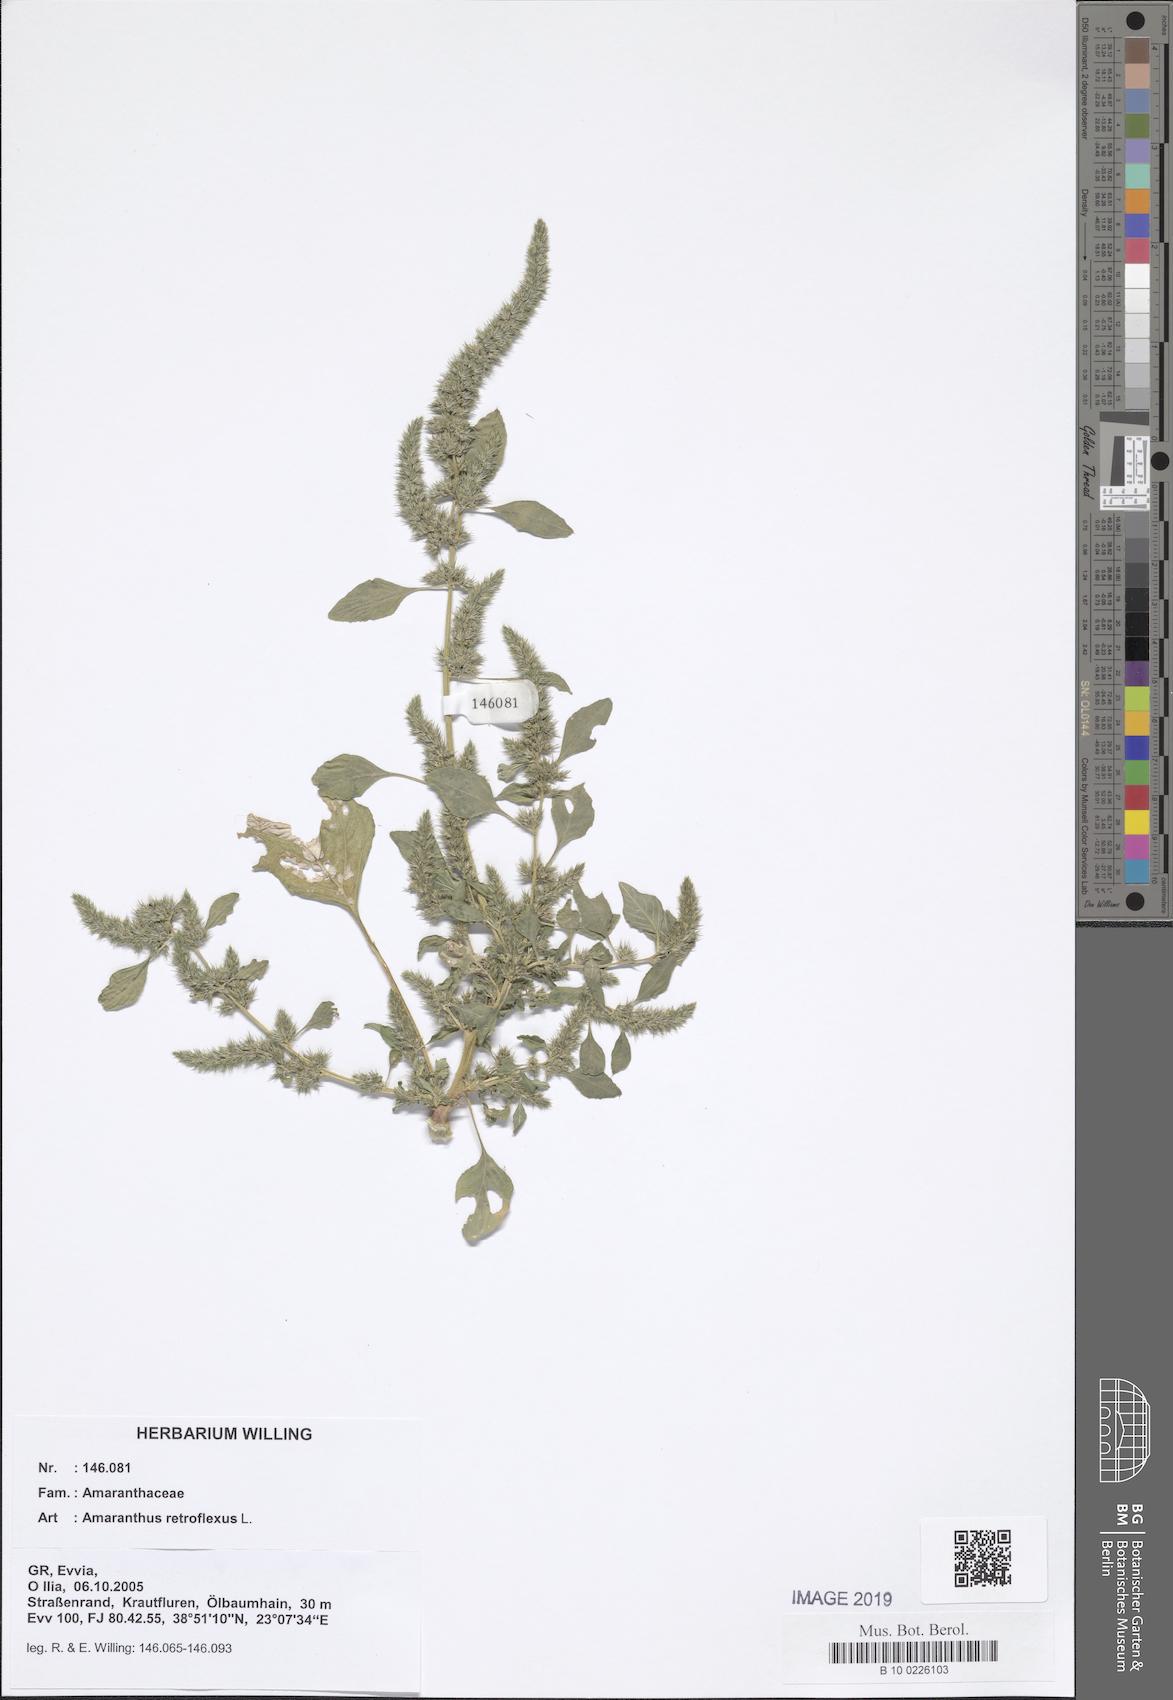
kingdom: Plantae
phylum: Tracheophyta
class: Magnoliopsida
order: Caryophyllales
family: Amaranthaceae
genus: Amaranthus
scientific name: Amaranthus retroflexus
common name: Redroot amaranth
